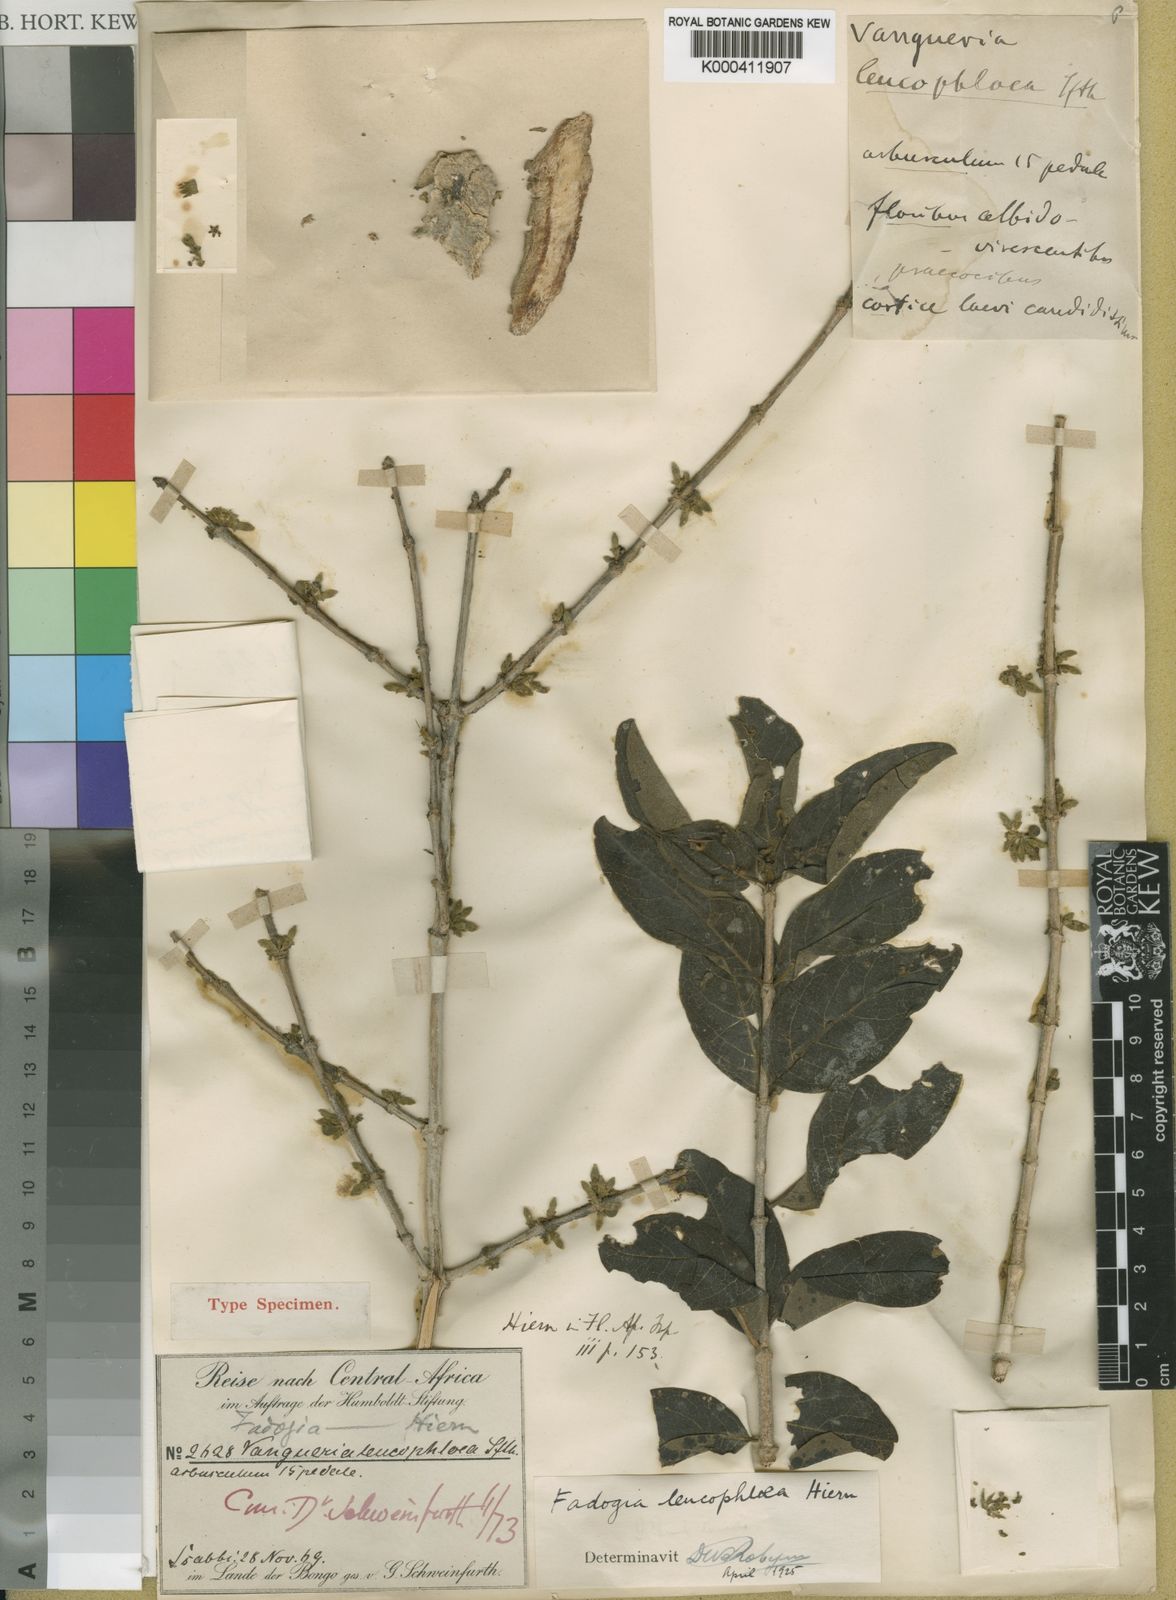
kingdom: Plantae
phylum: Tracheophyta
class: Magnoliopsida
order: Gentianales
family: Rubiaceae
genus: Fadogia
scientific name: Fadogia leucophloea
